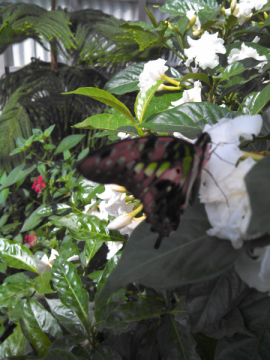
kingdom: Animalia
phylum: Arthropoda
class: Insecta
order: Lepidoptera
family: Papilionidae
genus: Parides
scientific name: Parides erithalion
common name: Variable Cattleheart
